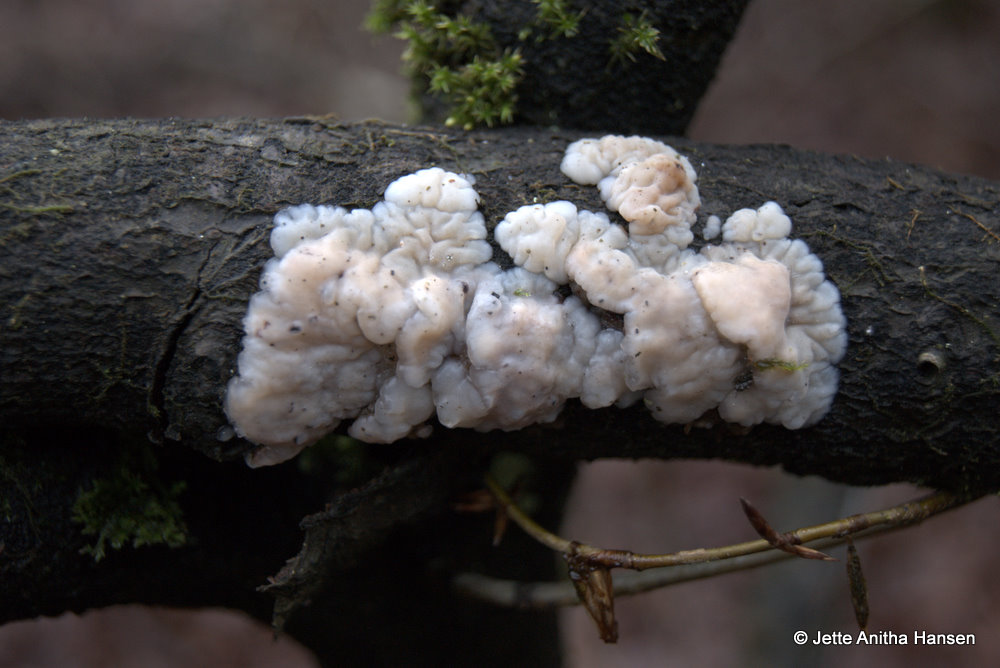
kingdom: Fungi
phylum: Basidiomycota
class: Agaricomycetes
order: Auriculariales
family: Auriculariaceae
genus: Exidia
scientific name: Exidia thuretiana
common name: hvidlig bævretop
